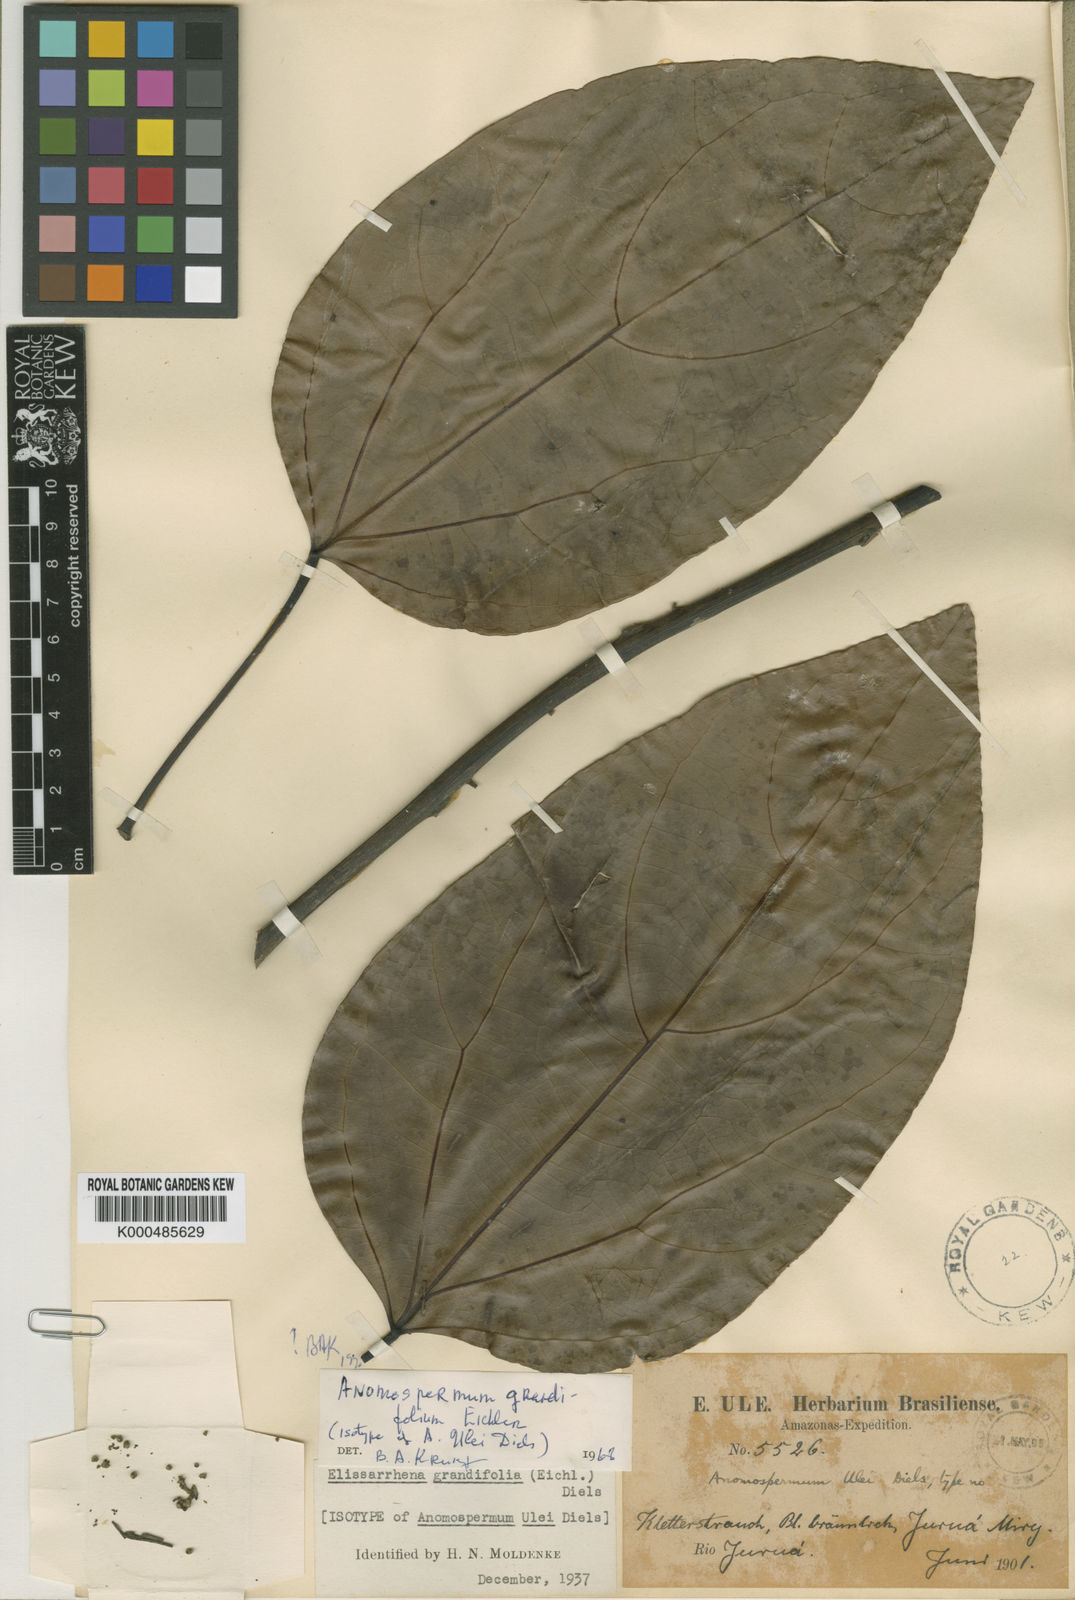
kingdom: Plantae
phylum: Tracheophyta
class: Magnoliopsida
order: Ranunculales
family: Menispermaceae
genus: Elissarrhena
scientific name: Elissarrhena longipes
